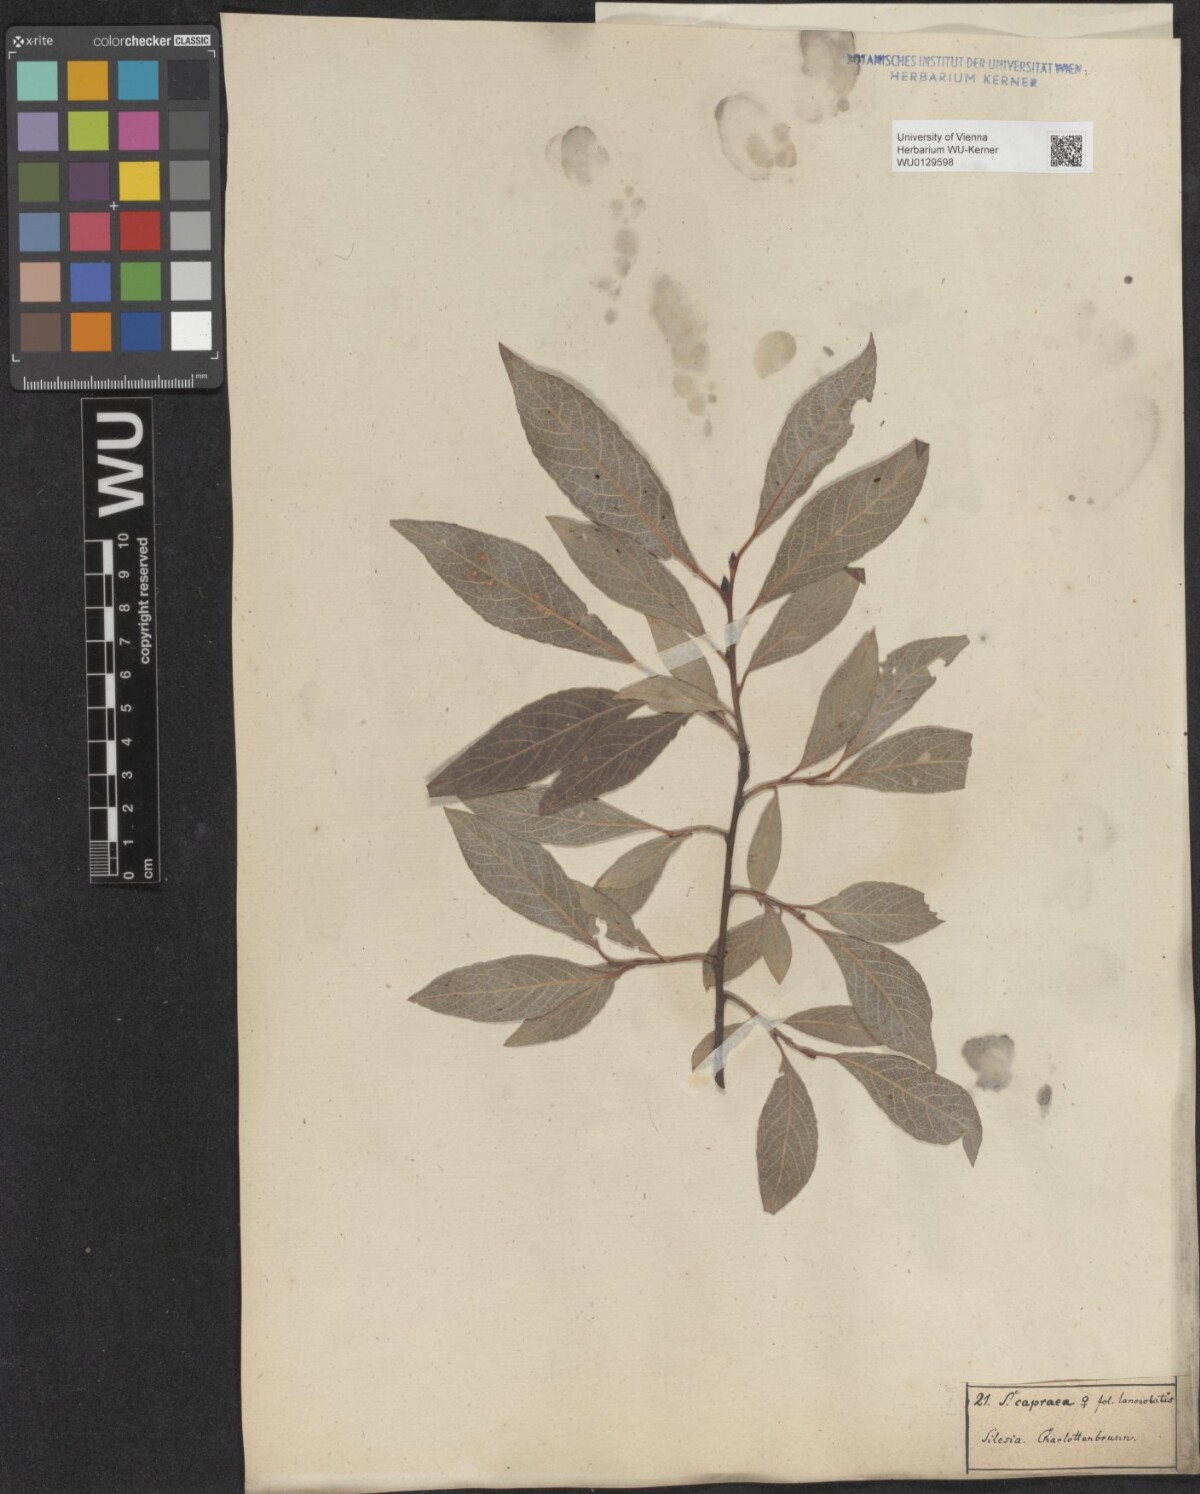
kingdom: Plantae
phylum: Tracheophyta
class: Magnoliopsida
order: Malpighiales
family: Salicaceae
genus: Salix
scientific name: Salix caprea
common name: Goat willow
